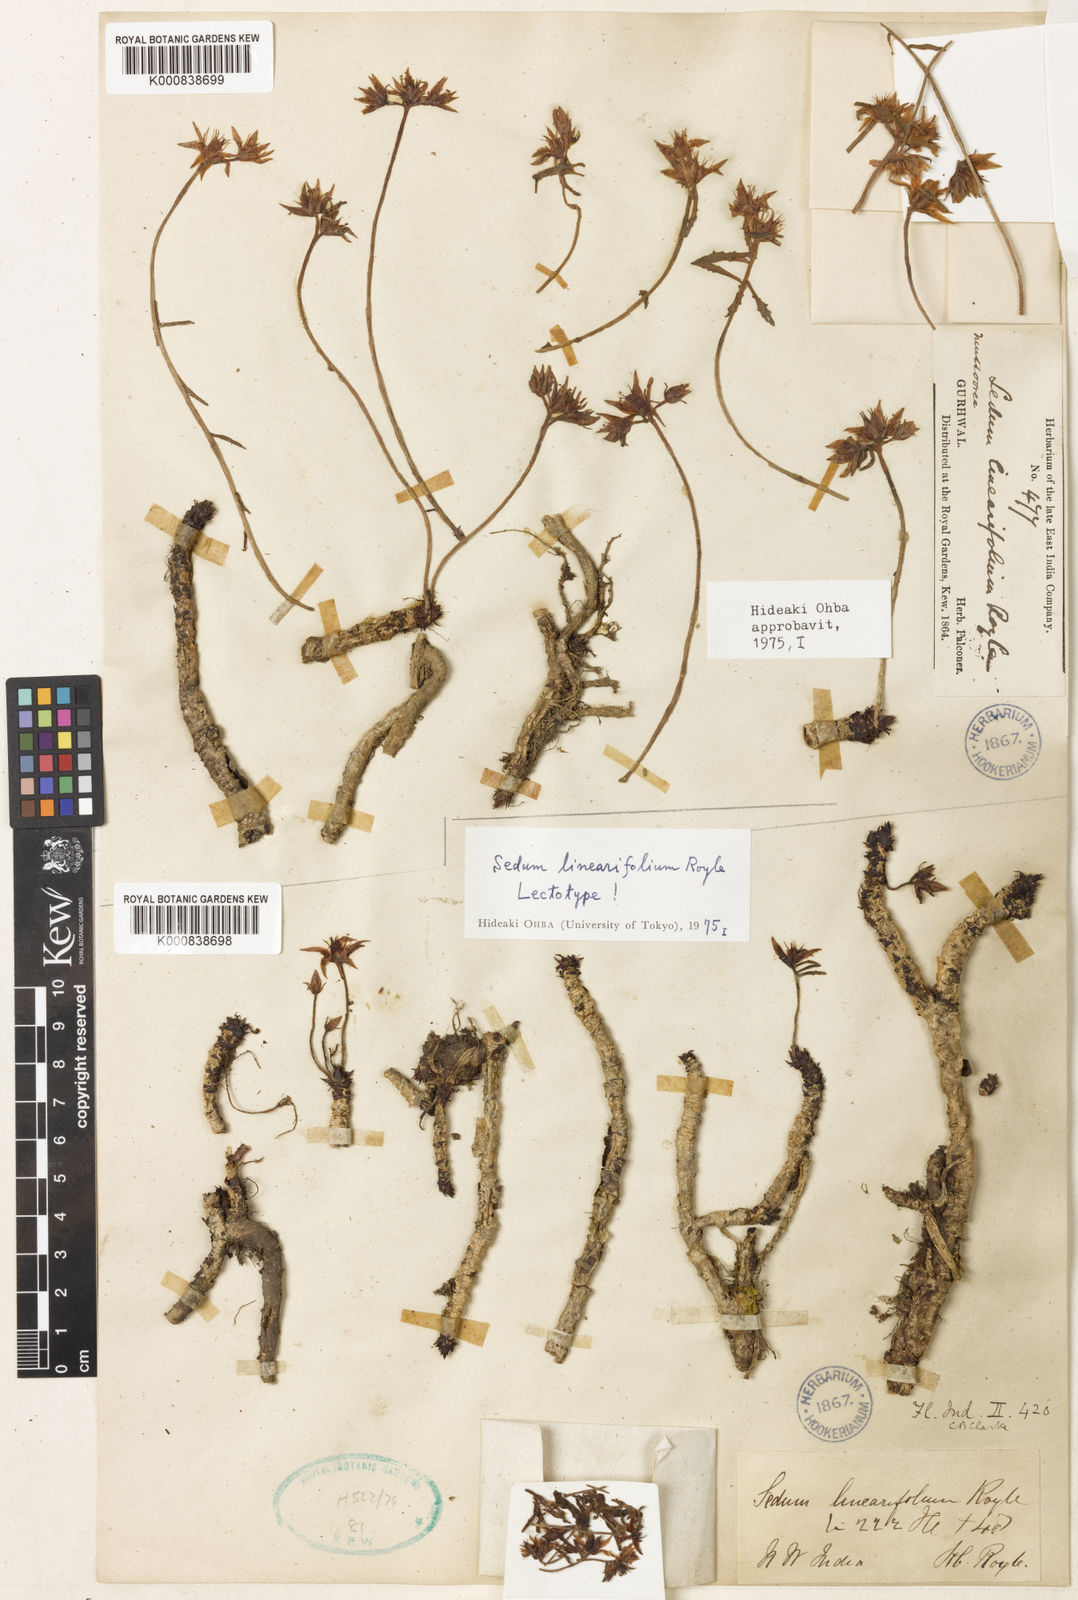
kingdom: Plantae
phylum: Tracheophyta
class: Magnoliopsida
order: Saxifragales
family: Crassulaceae
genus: Rhodiola
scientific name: Rhodiola sinuata
